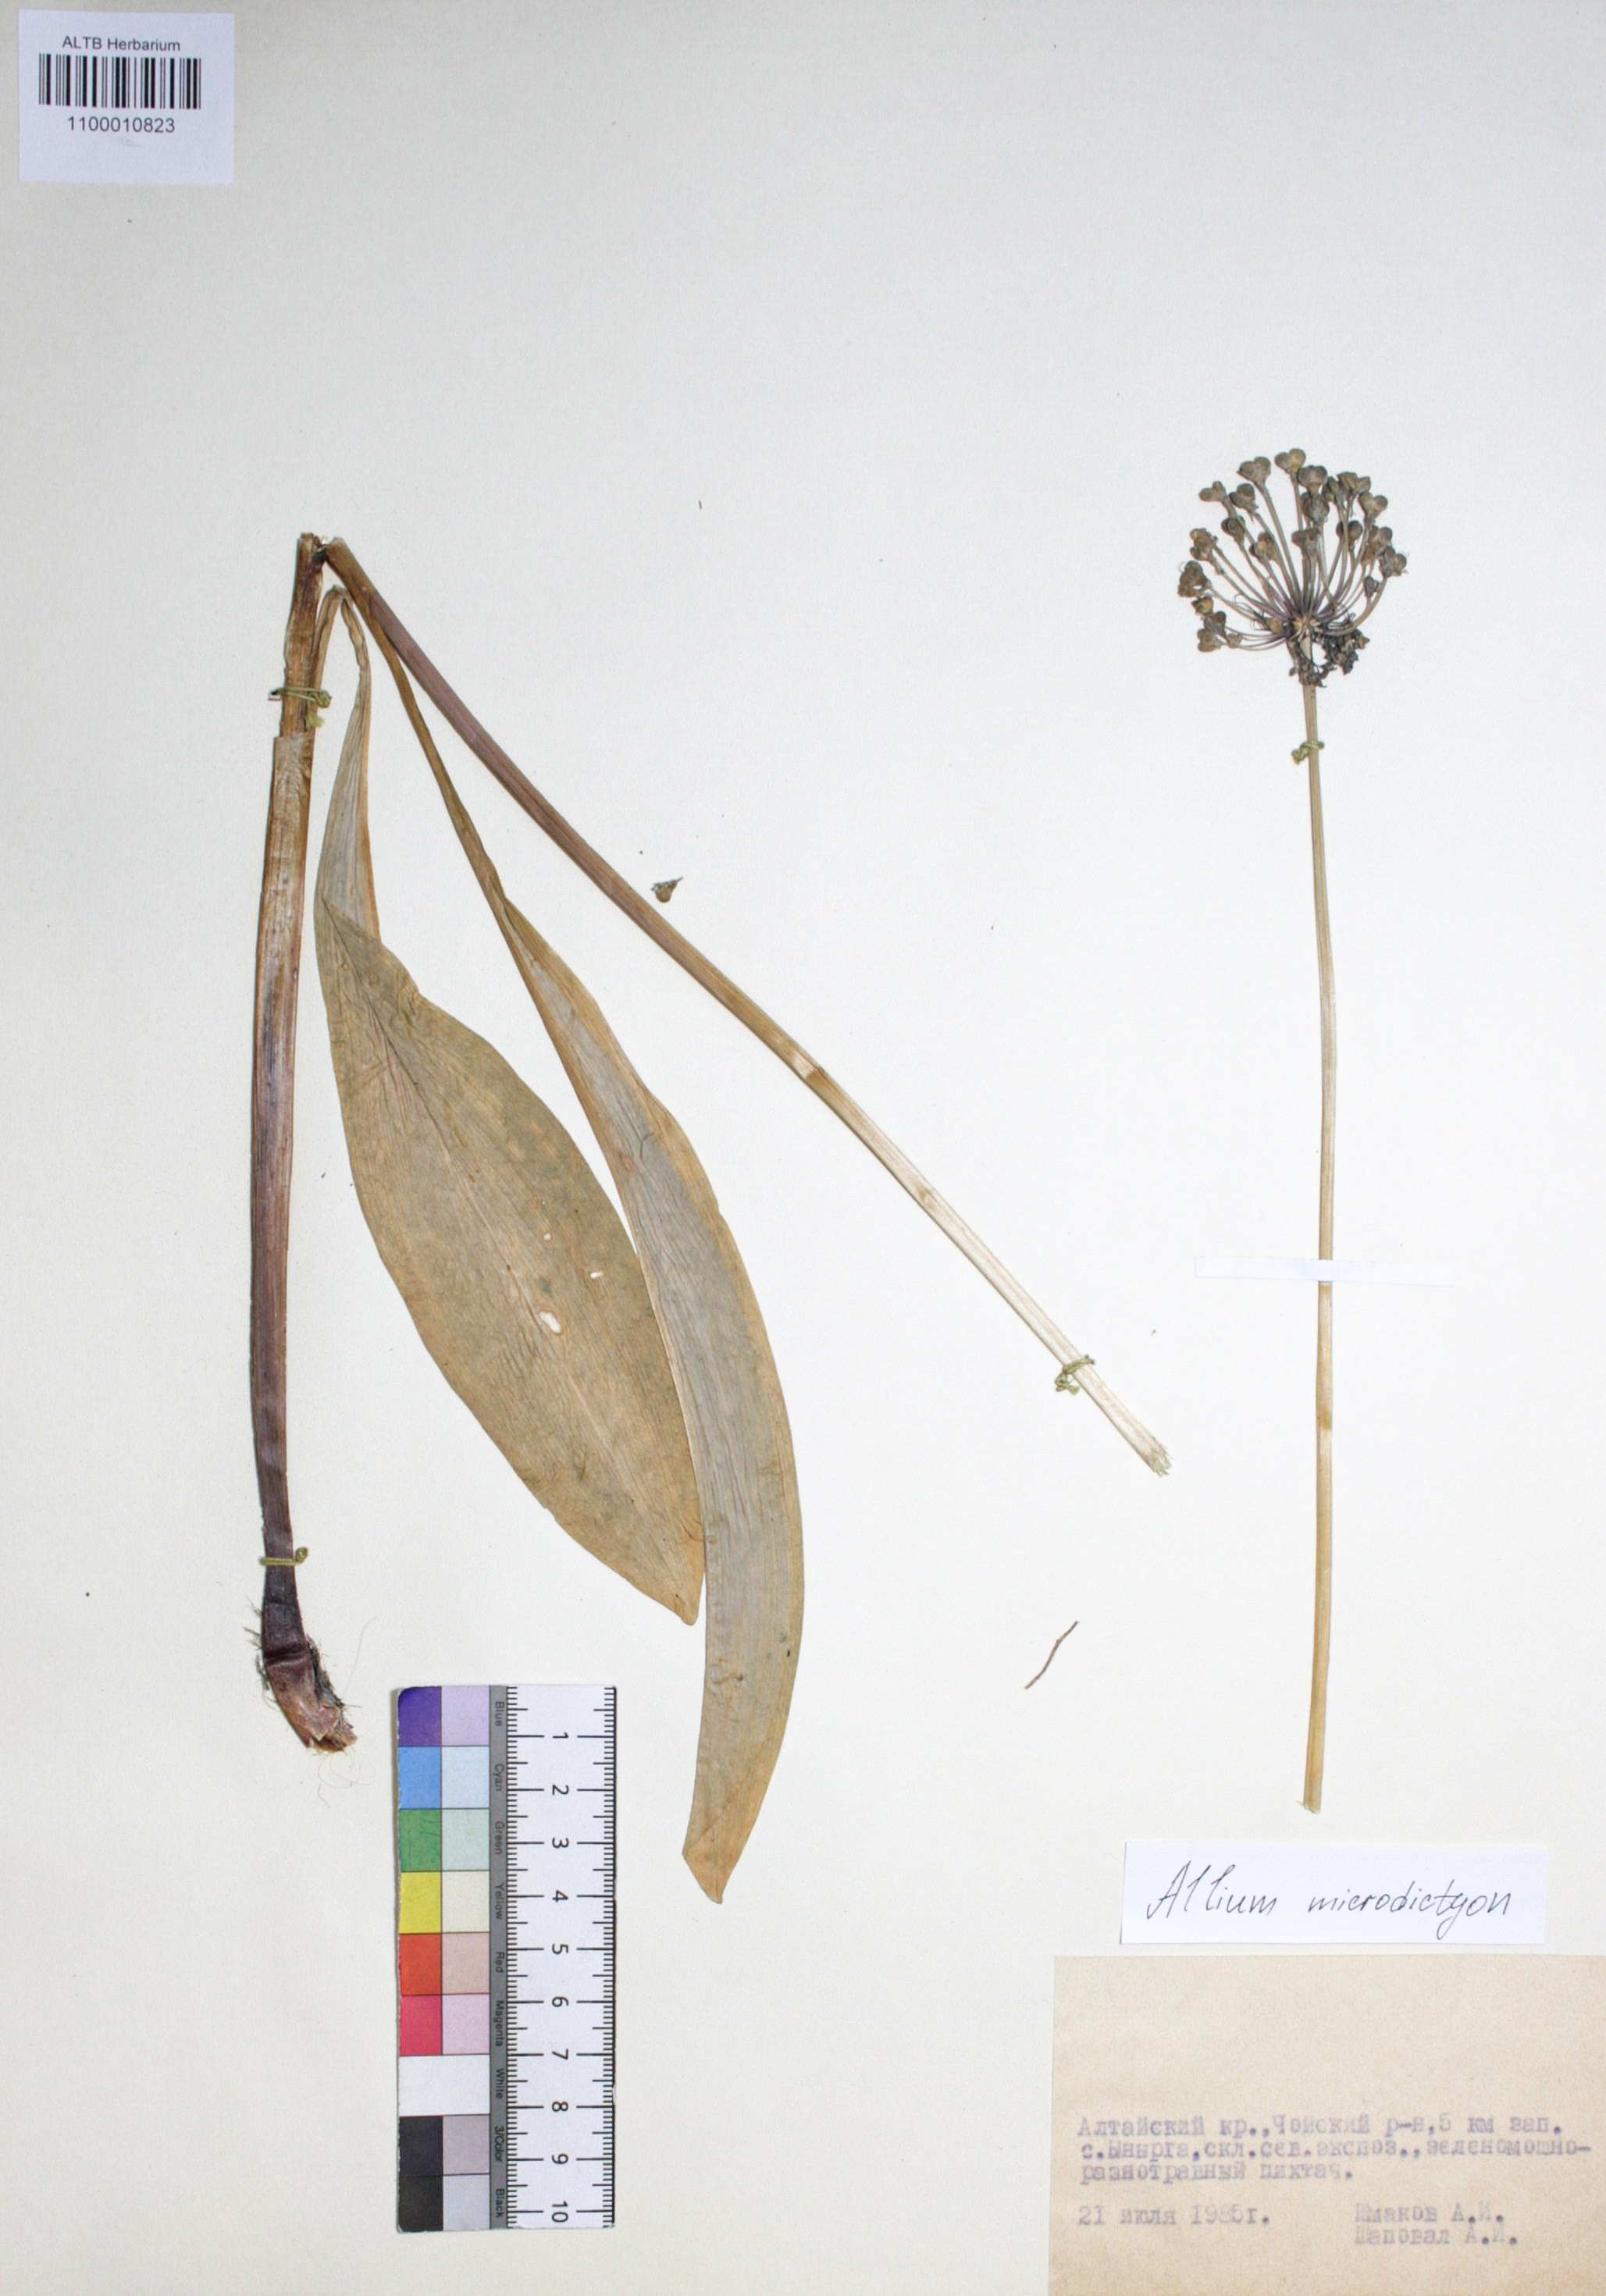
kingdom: Plantae
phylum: Tracheophyta
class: Liliopsida
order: Asparagales
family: Amaryllidaceae
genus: Allium
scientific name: Allium microdictyon
